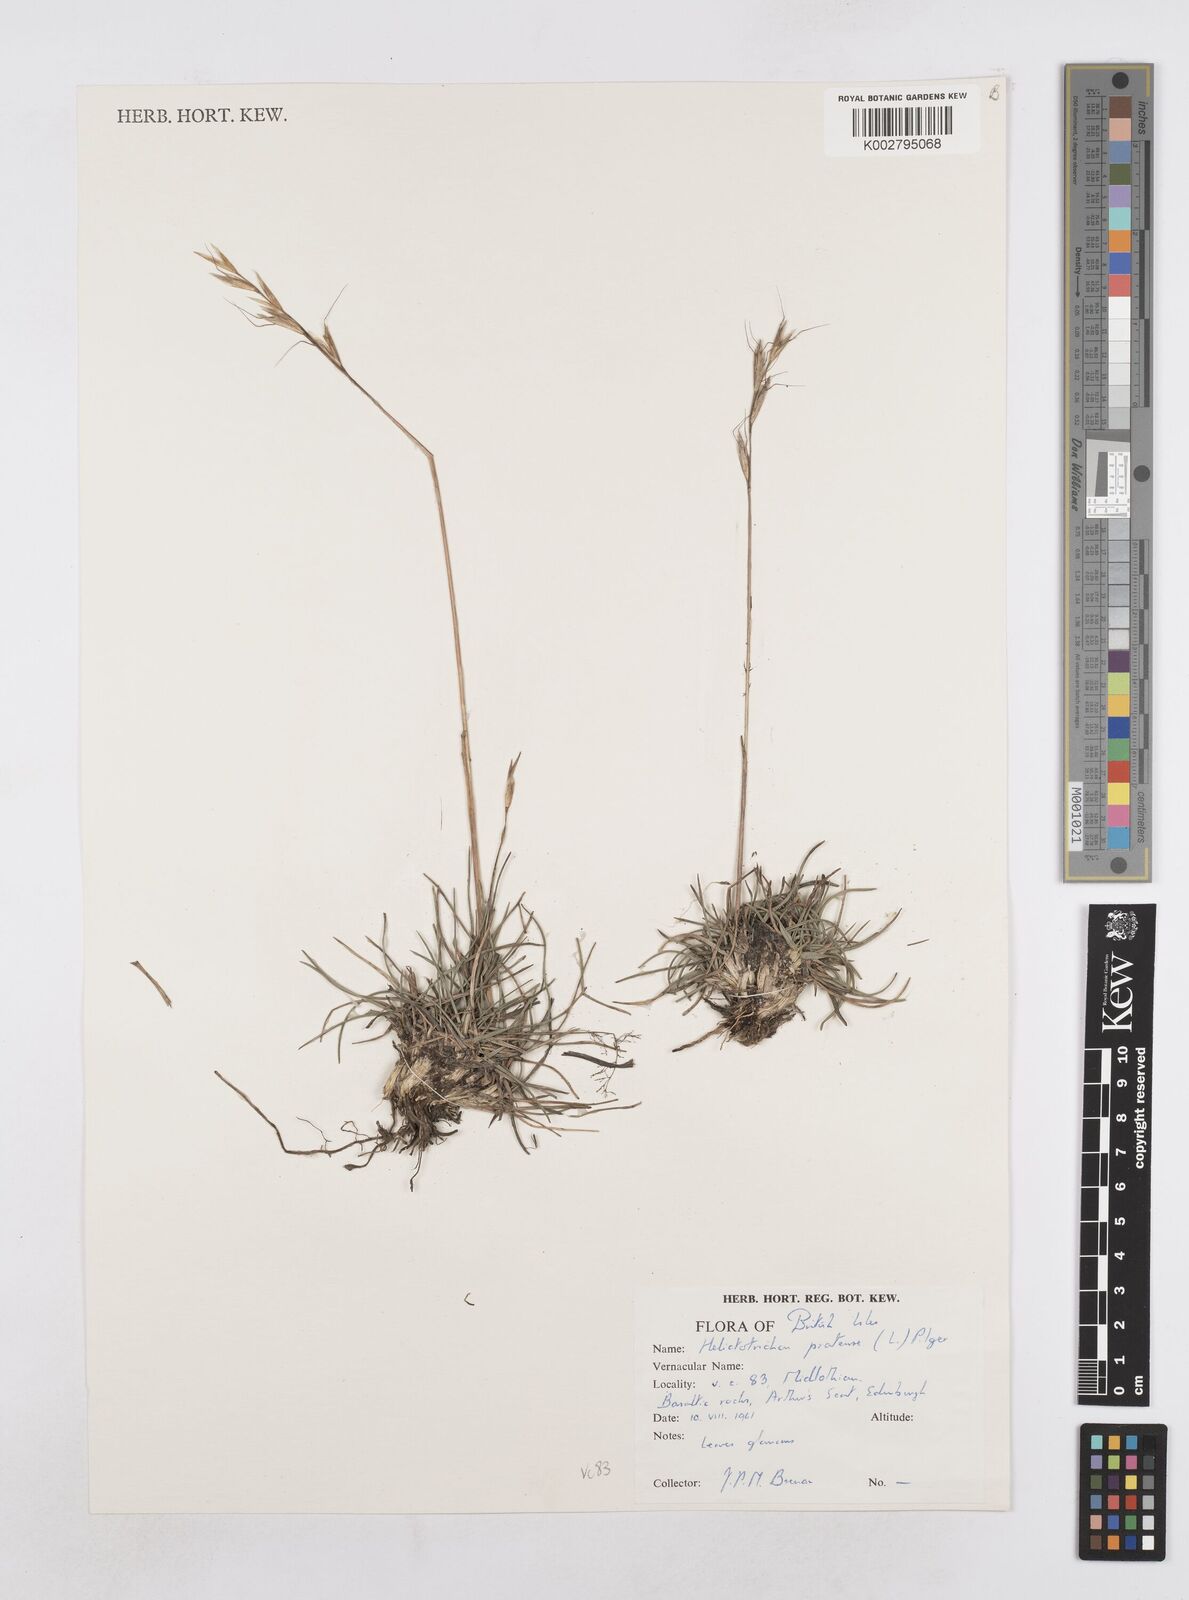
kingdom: Plantae
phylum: Tracheophyta
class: Liliopsida
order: Poales
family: Poaceae
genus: Helictotrichon
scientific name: Helictotrichon
